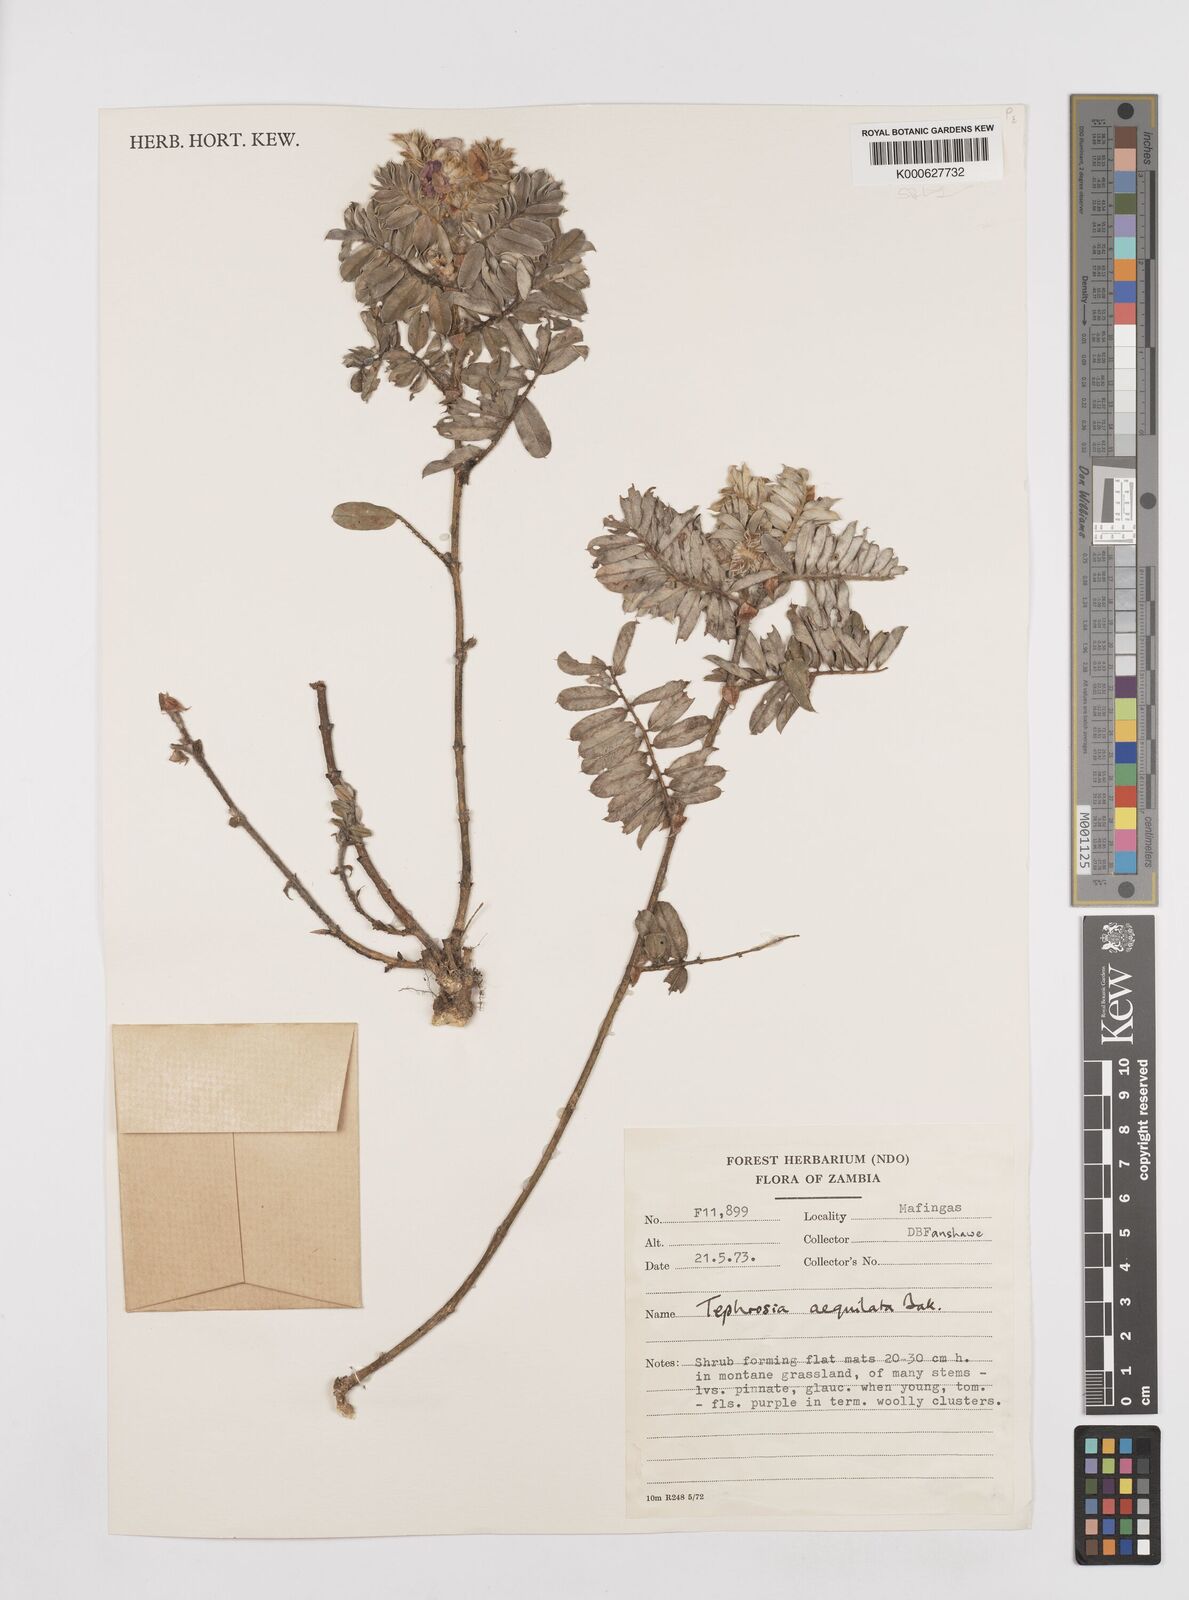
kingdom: Plantae
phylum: Tracheophyta
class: Magnoliopsida
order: Fabales
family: Fabaceae
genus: Tephrosia
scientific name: Tephrosia
